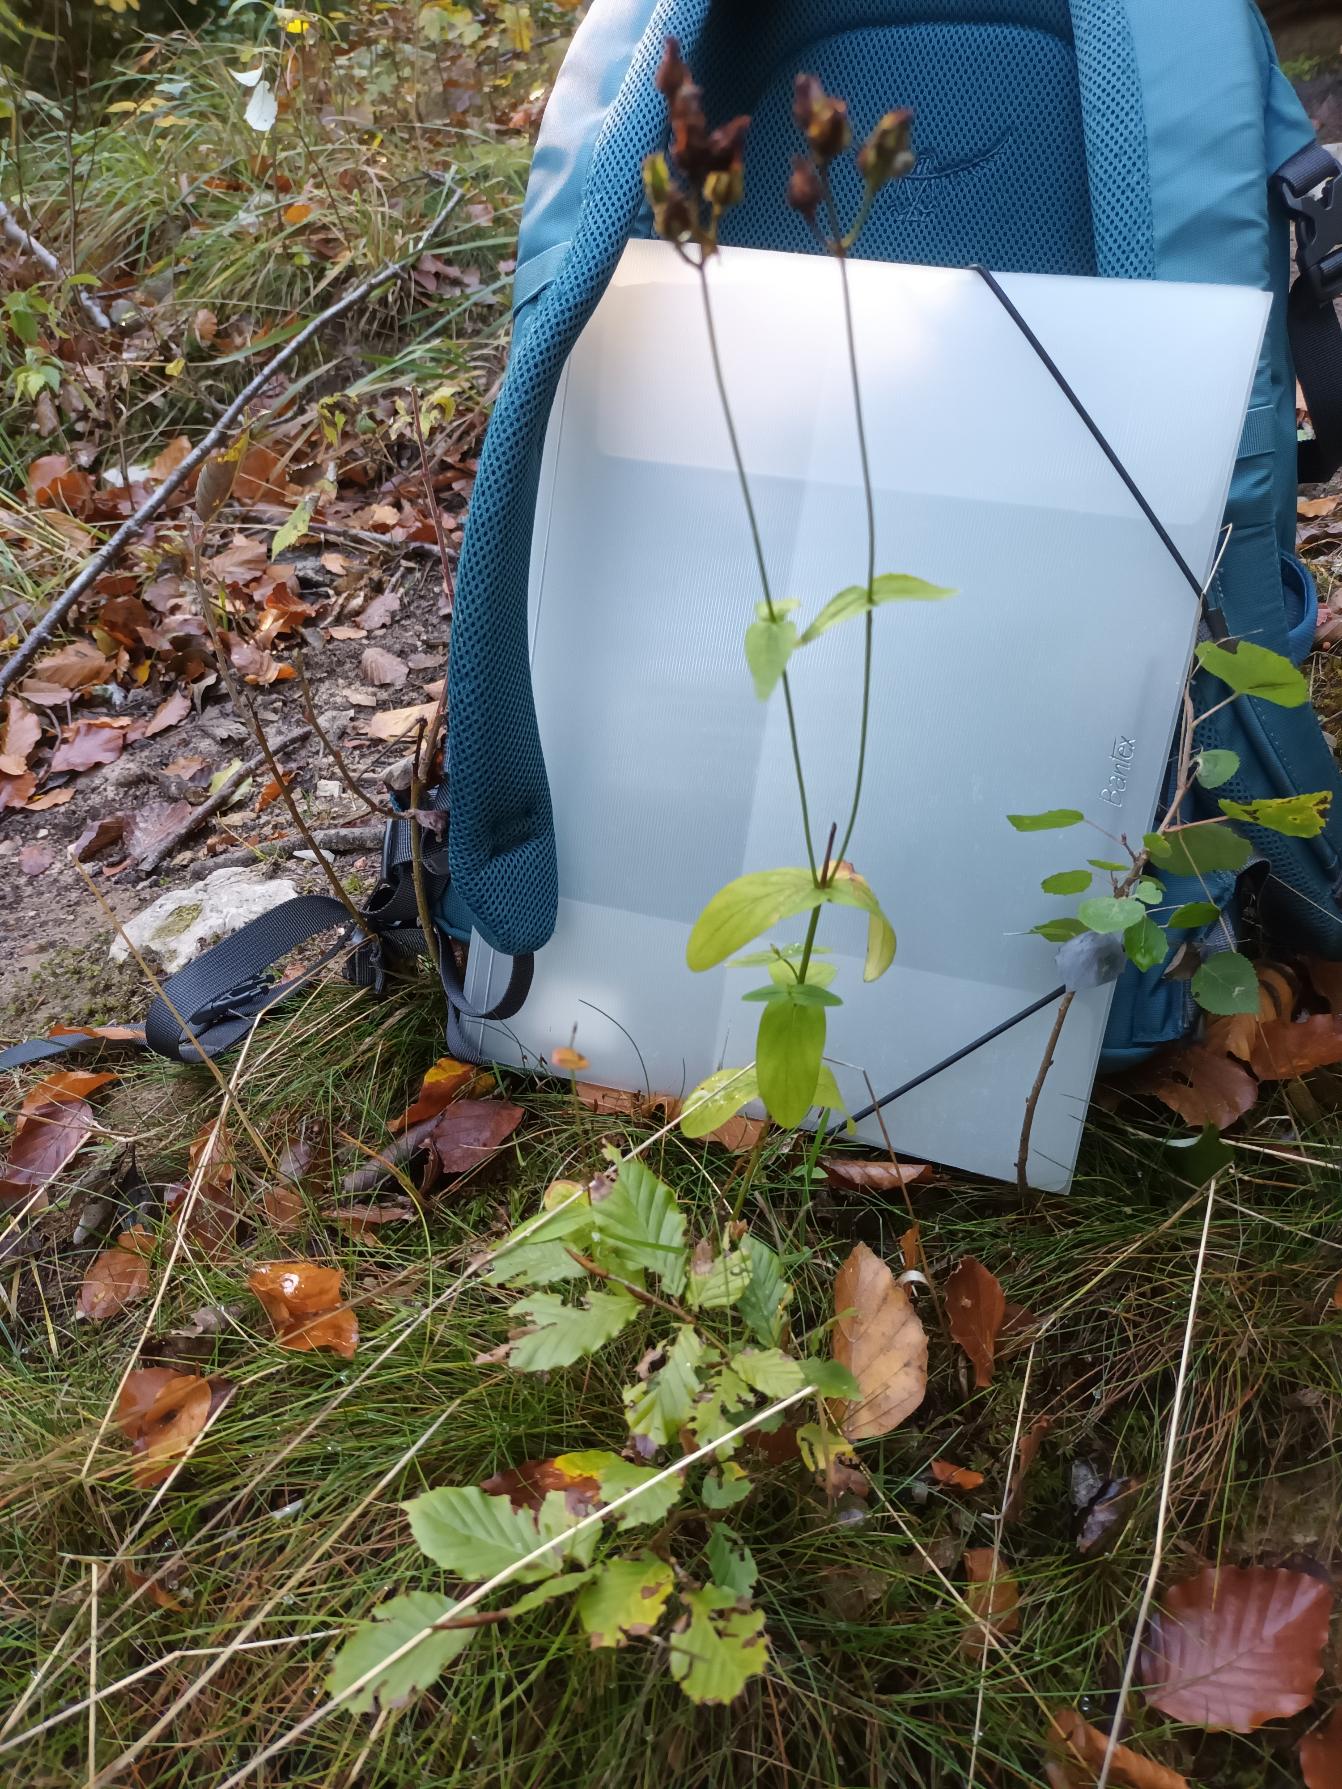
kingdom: Plantae
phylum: Tracheophyta
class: Magnoliopsida
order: Malpighiales
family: Hypericaceae
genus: Hypericum
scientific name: Hypericum montanum
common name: Bjerg-perikon
